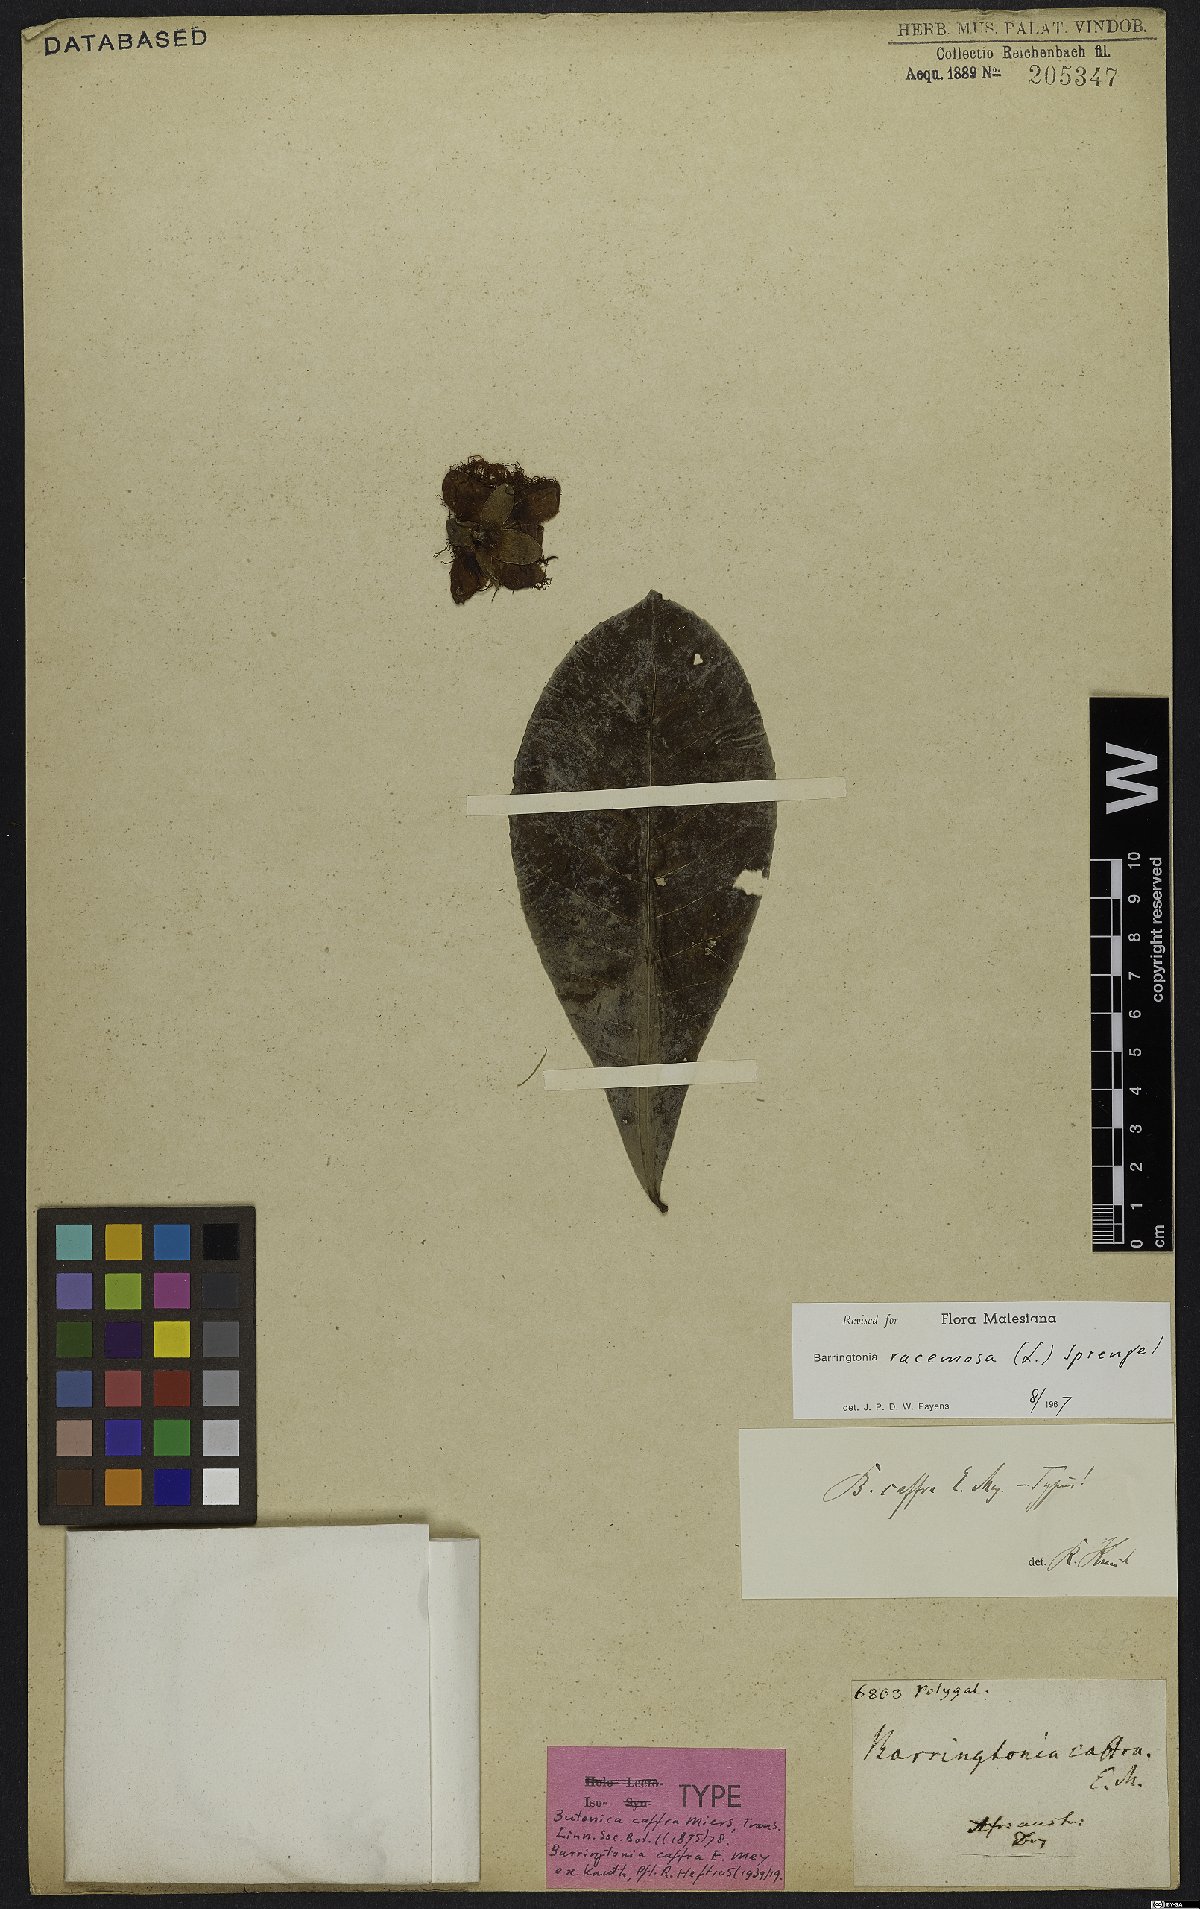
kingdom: Plantae
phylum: Tracheophyta
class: Magnoliopsida
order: Ericales
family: Lecythidaceae
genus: Barringtonia
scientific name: Barringtonia racemosa
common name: Brackwater mangrove
